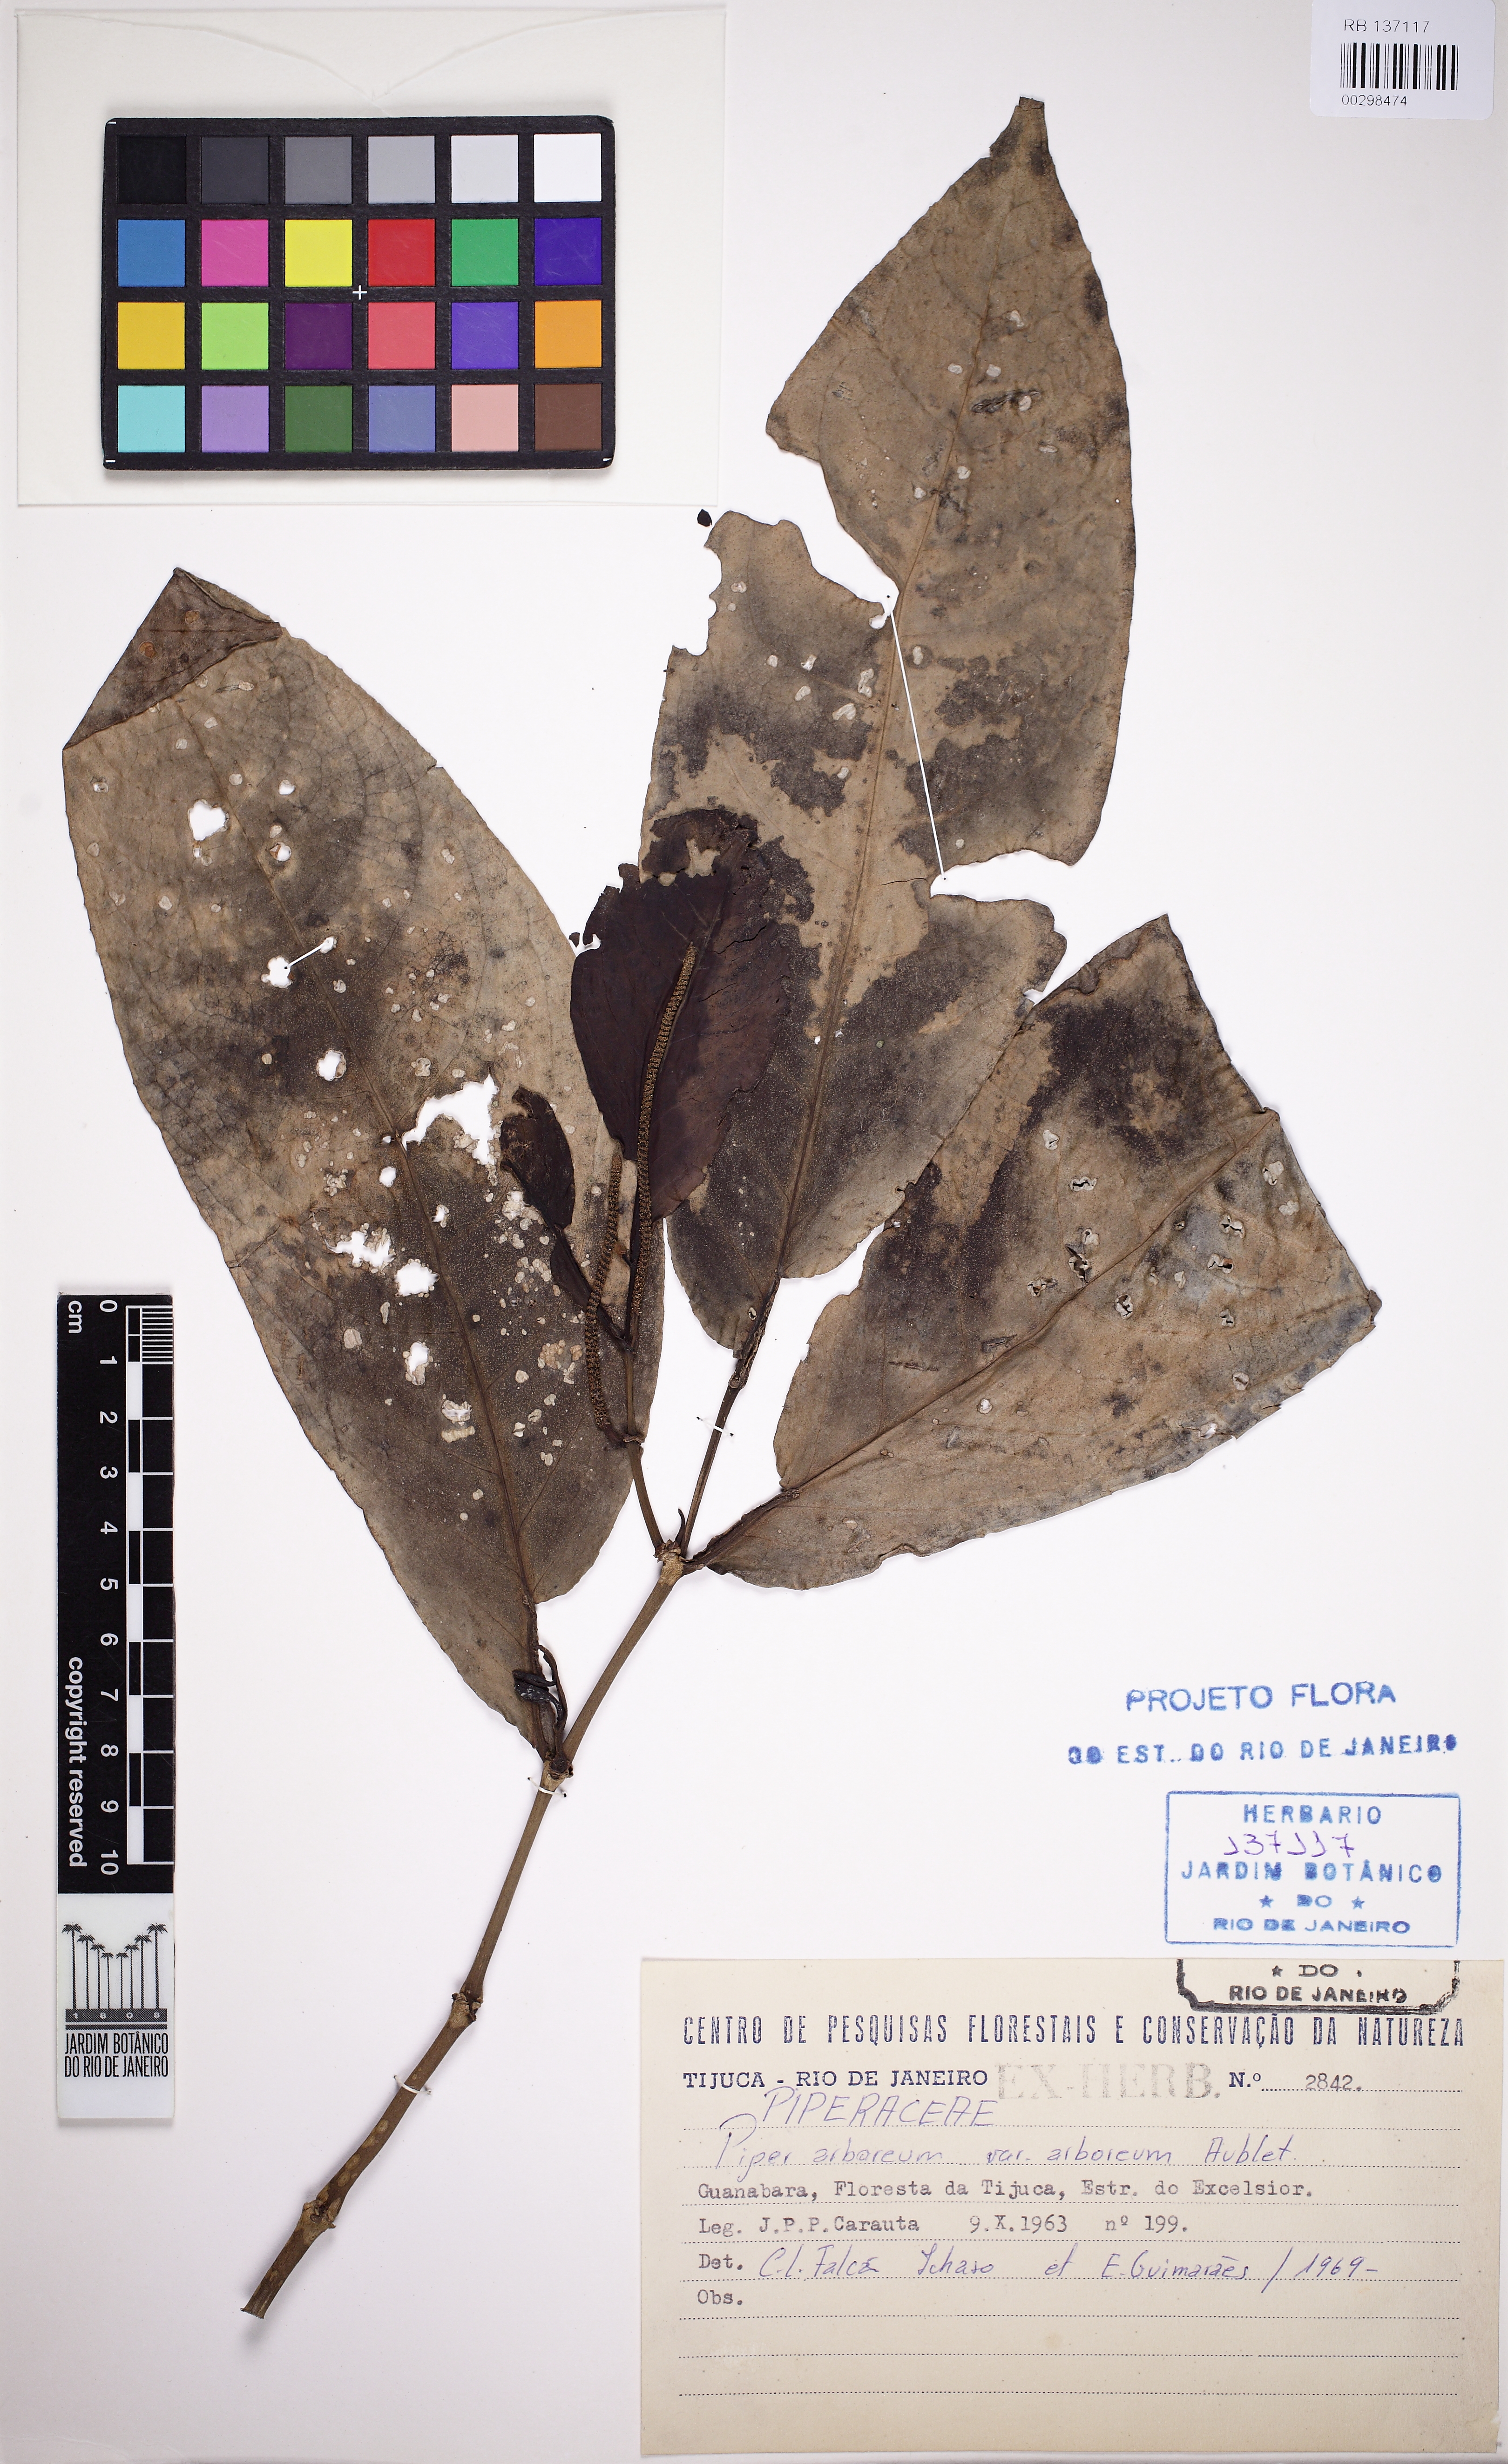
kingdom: Plantae
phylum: Tracheophyta
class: Magnoliopsida
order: Piperales
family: Piperaceae
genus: Piper
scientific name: Piper arboreum
